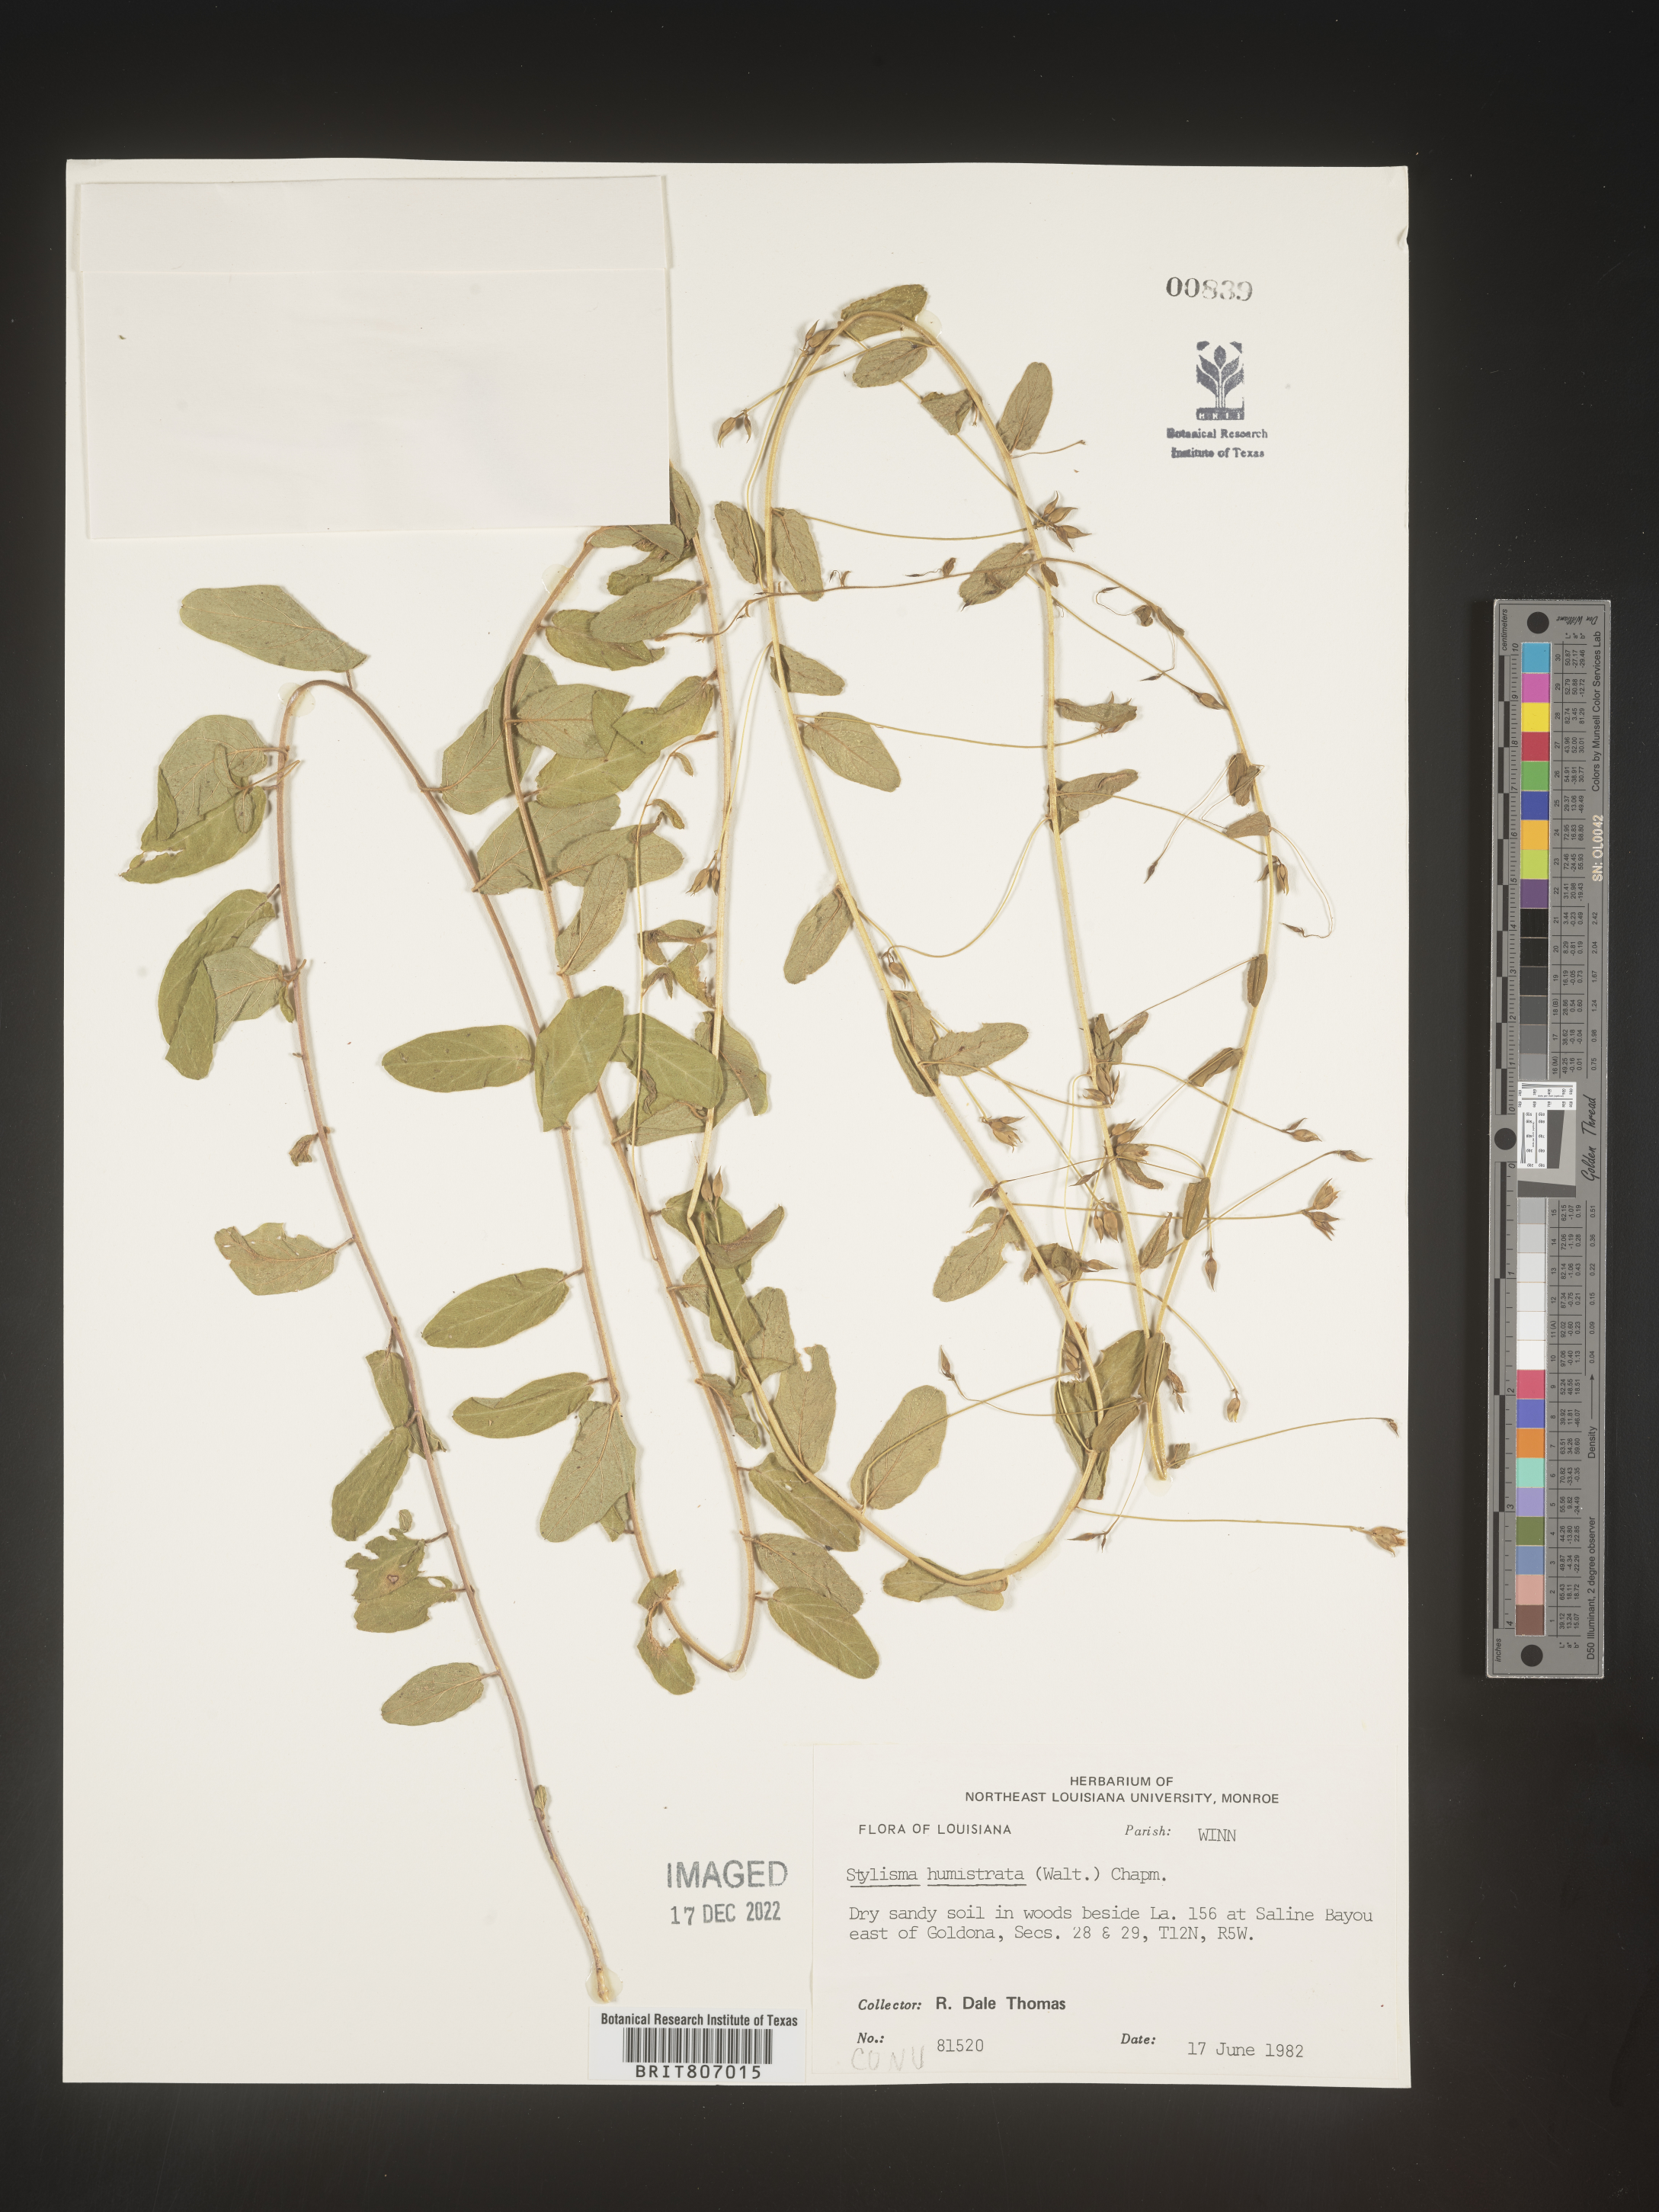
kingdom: Plantae
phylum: Tracheophyta
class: Magnoliopsida
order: Solanales
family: Convolvulaceae
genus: Stylisma
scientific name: Stylisma humistrata
